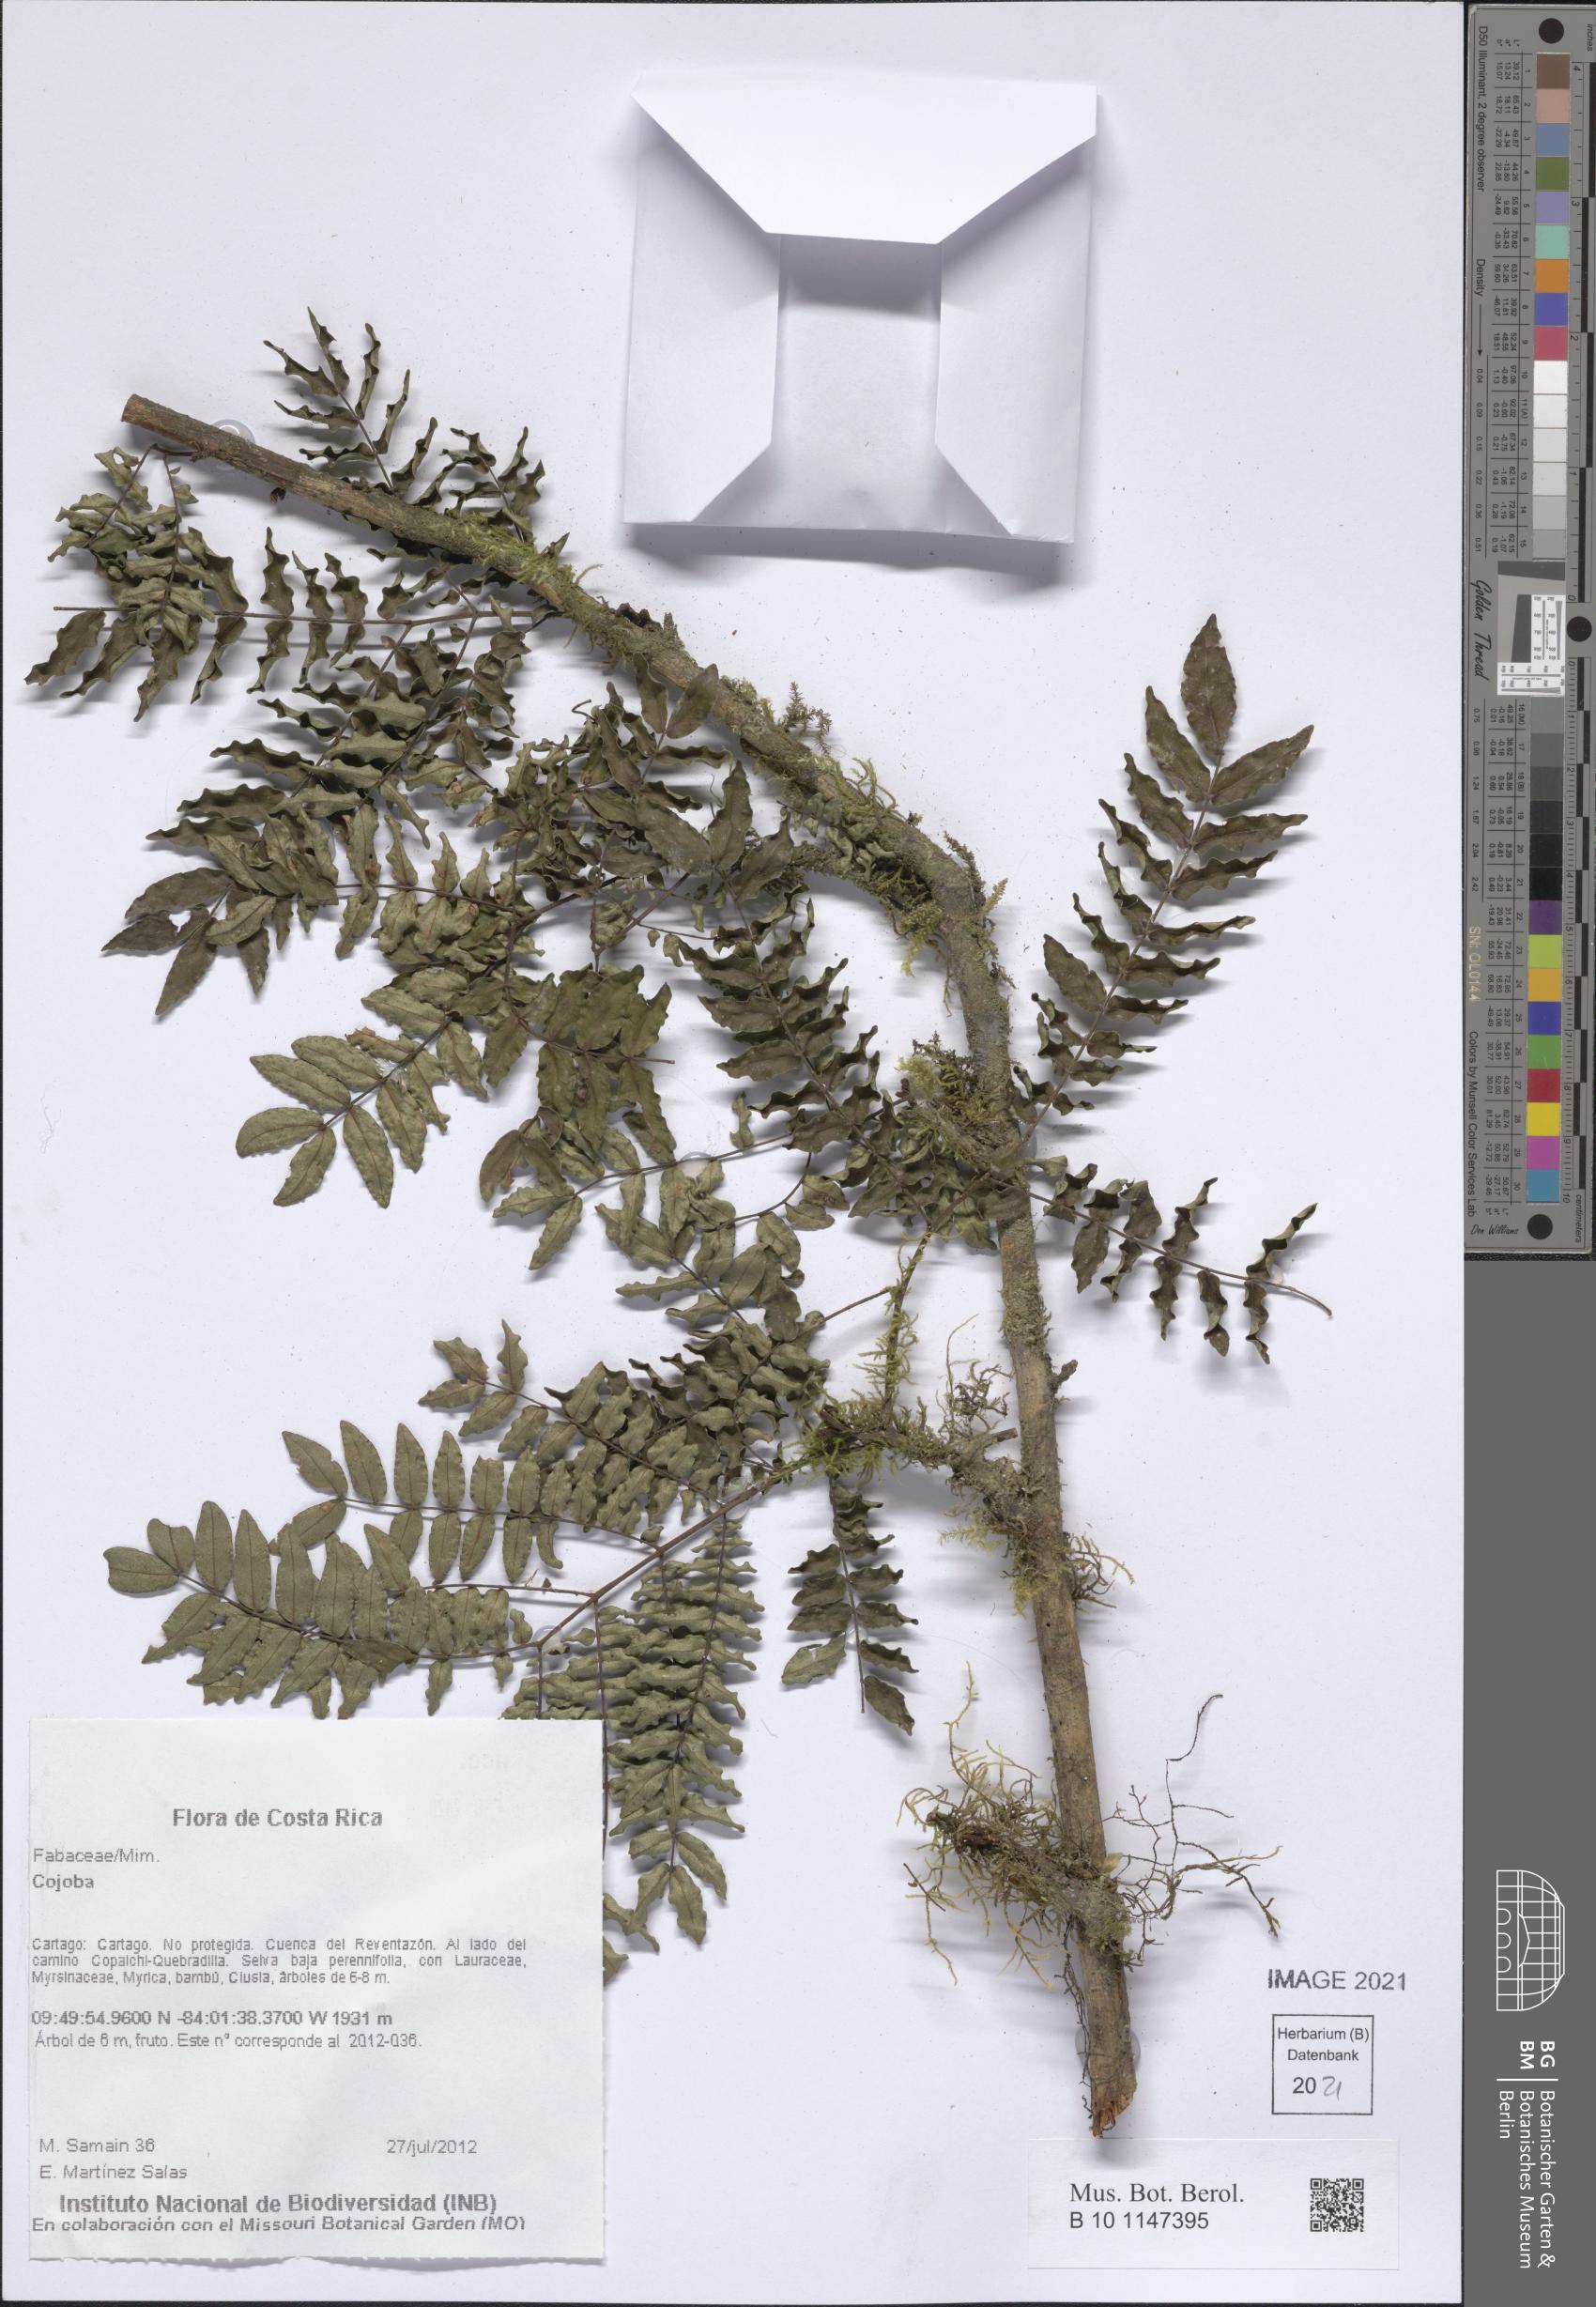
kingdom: Plantae
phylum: Tracheophyta
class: Magnoliopsida
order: Fabales
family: Fabaceae
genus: Cojoba
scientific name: Cojoba
